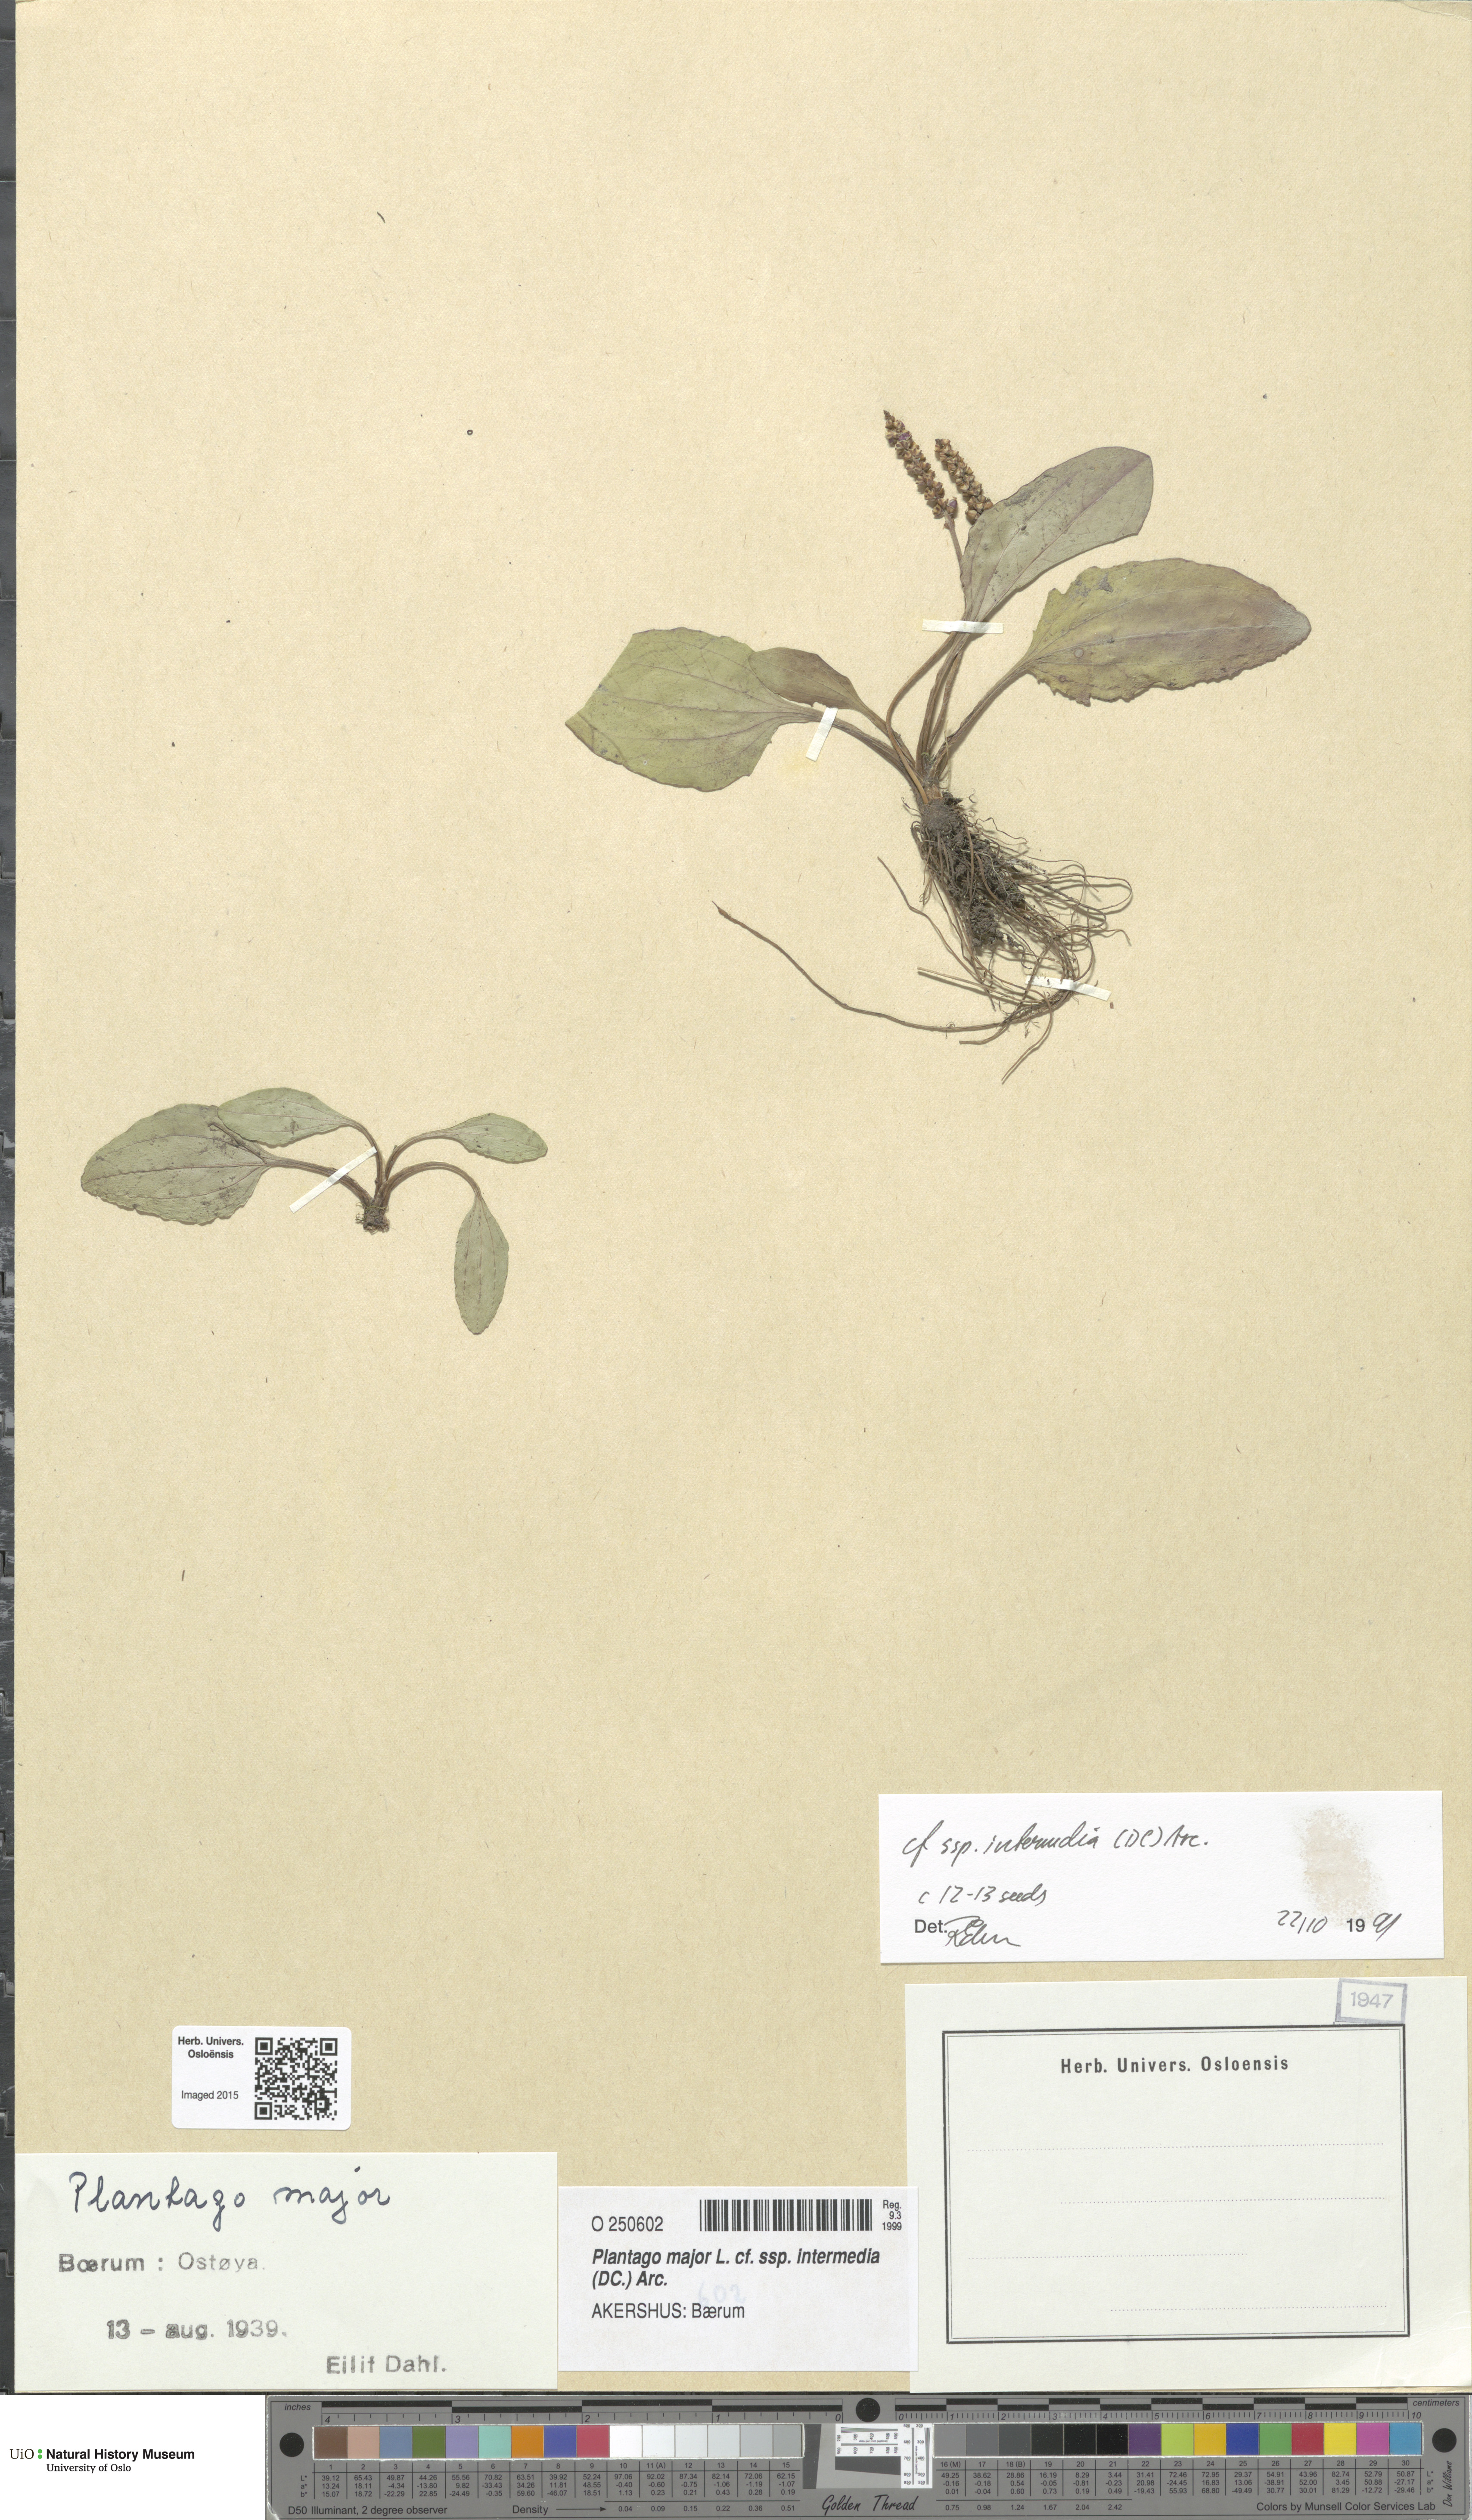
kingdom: Plantae
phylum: Tracheophyta
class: Magnoliopsida
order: Lamiales
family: Plantaginaceae
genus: Plantago
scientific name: Plantago uliginosa
